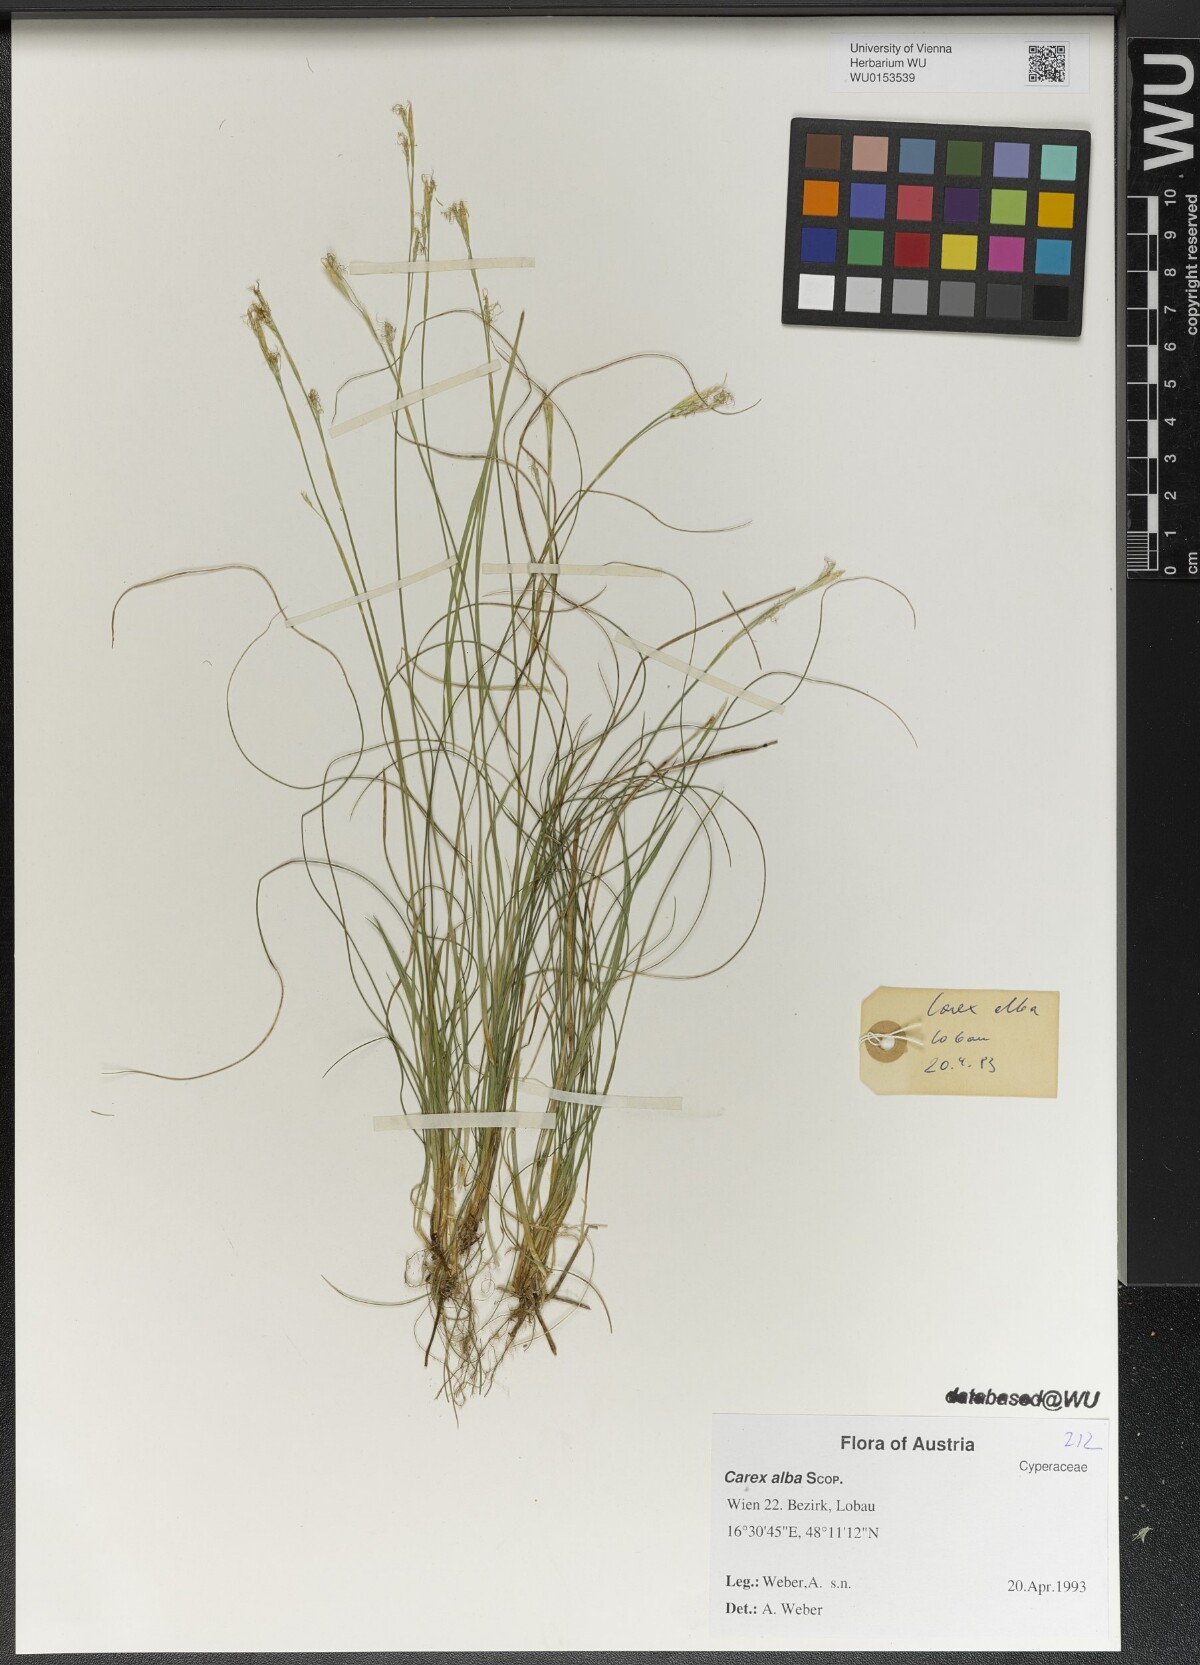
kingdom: Plantae
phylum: Tracheophyta
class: Liliopsida
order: Poales
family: Cyperaceae
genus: Carex
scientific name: Carex digitata
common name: Fingered sedge
